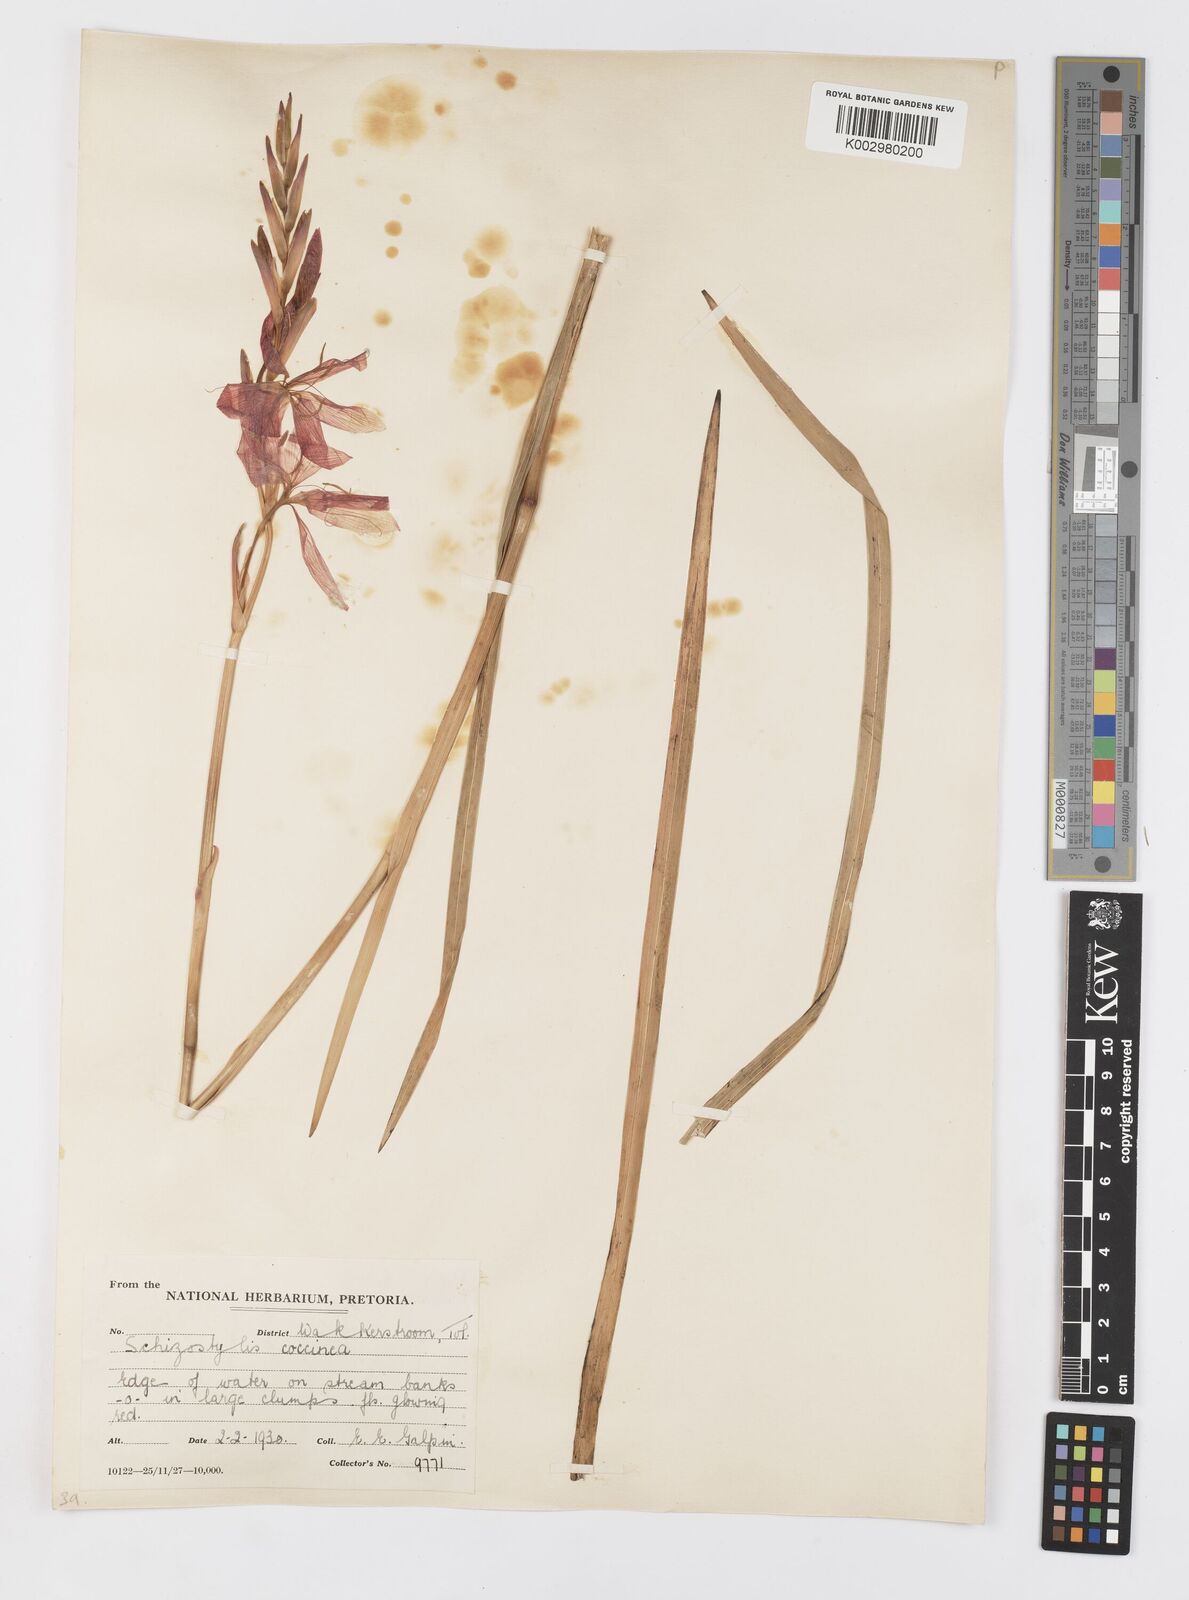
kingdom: Plantae
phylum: Tracheophyta
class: Liliopsida
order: Asparagales
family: Iridaceae
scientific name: Iridaceae
